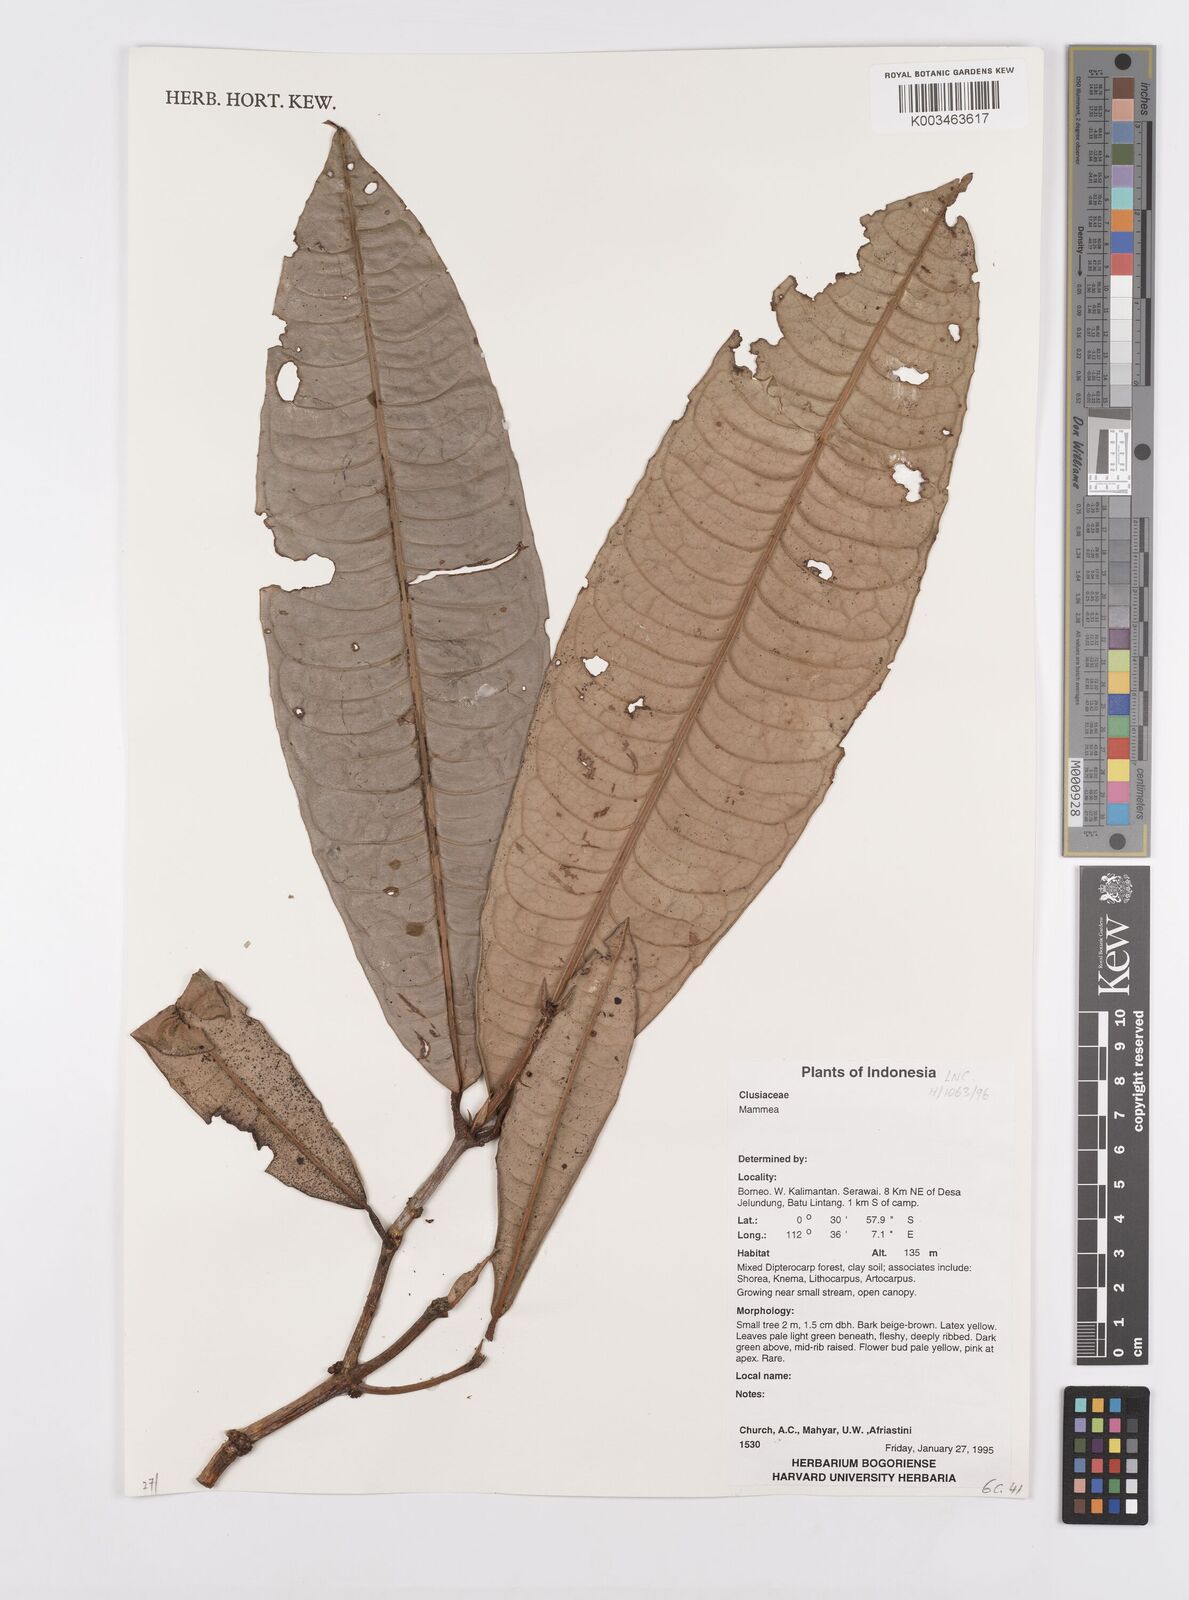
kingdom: Plantae
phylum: Tracheophyta
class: Magnoliopsida
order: Malpighiales
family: Calophyllaceae
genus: Mammea
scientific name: Mammea
